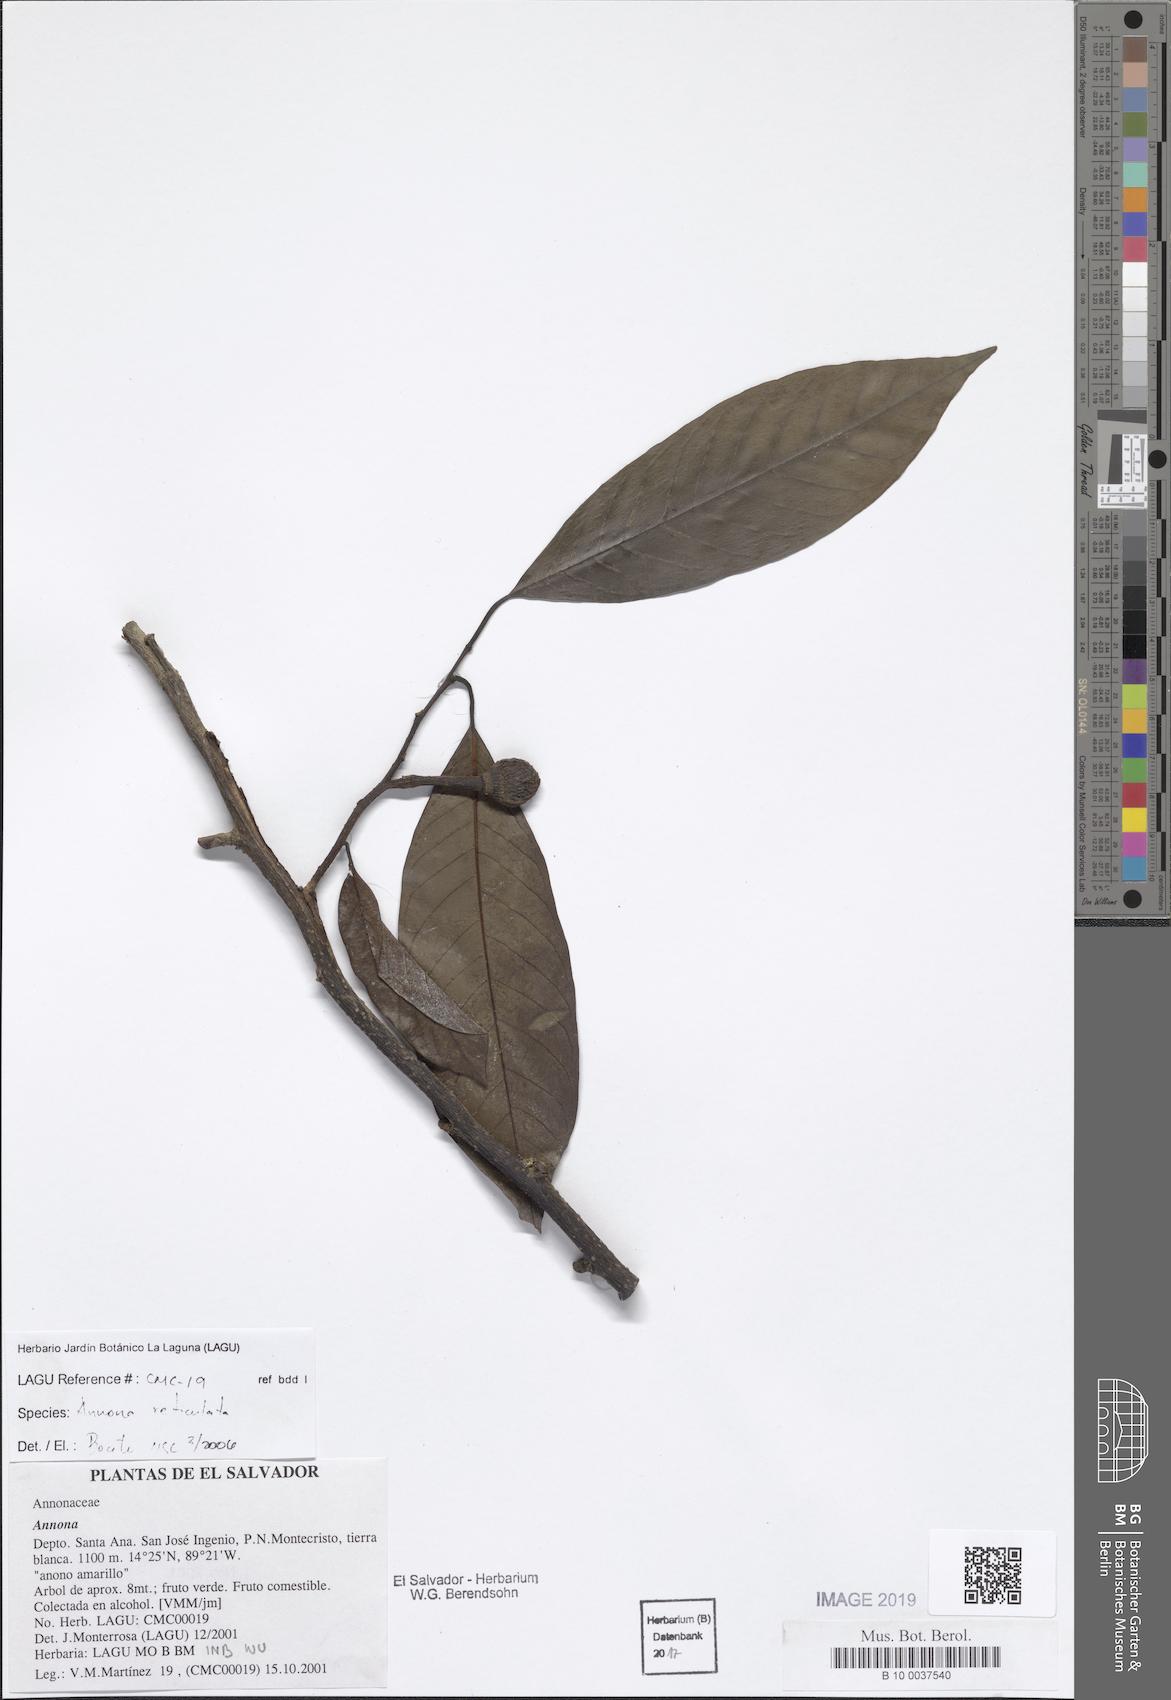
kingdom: Plantae
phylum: Tracheophyta
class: Magnoliopsida
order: Magnoliales
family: Annonaceae
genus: Annona
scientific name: Annona reticulata
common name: Custard apple
